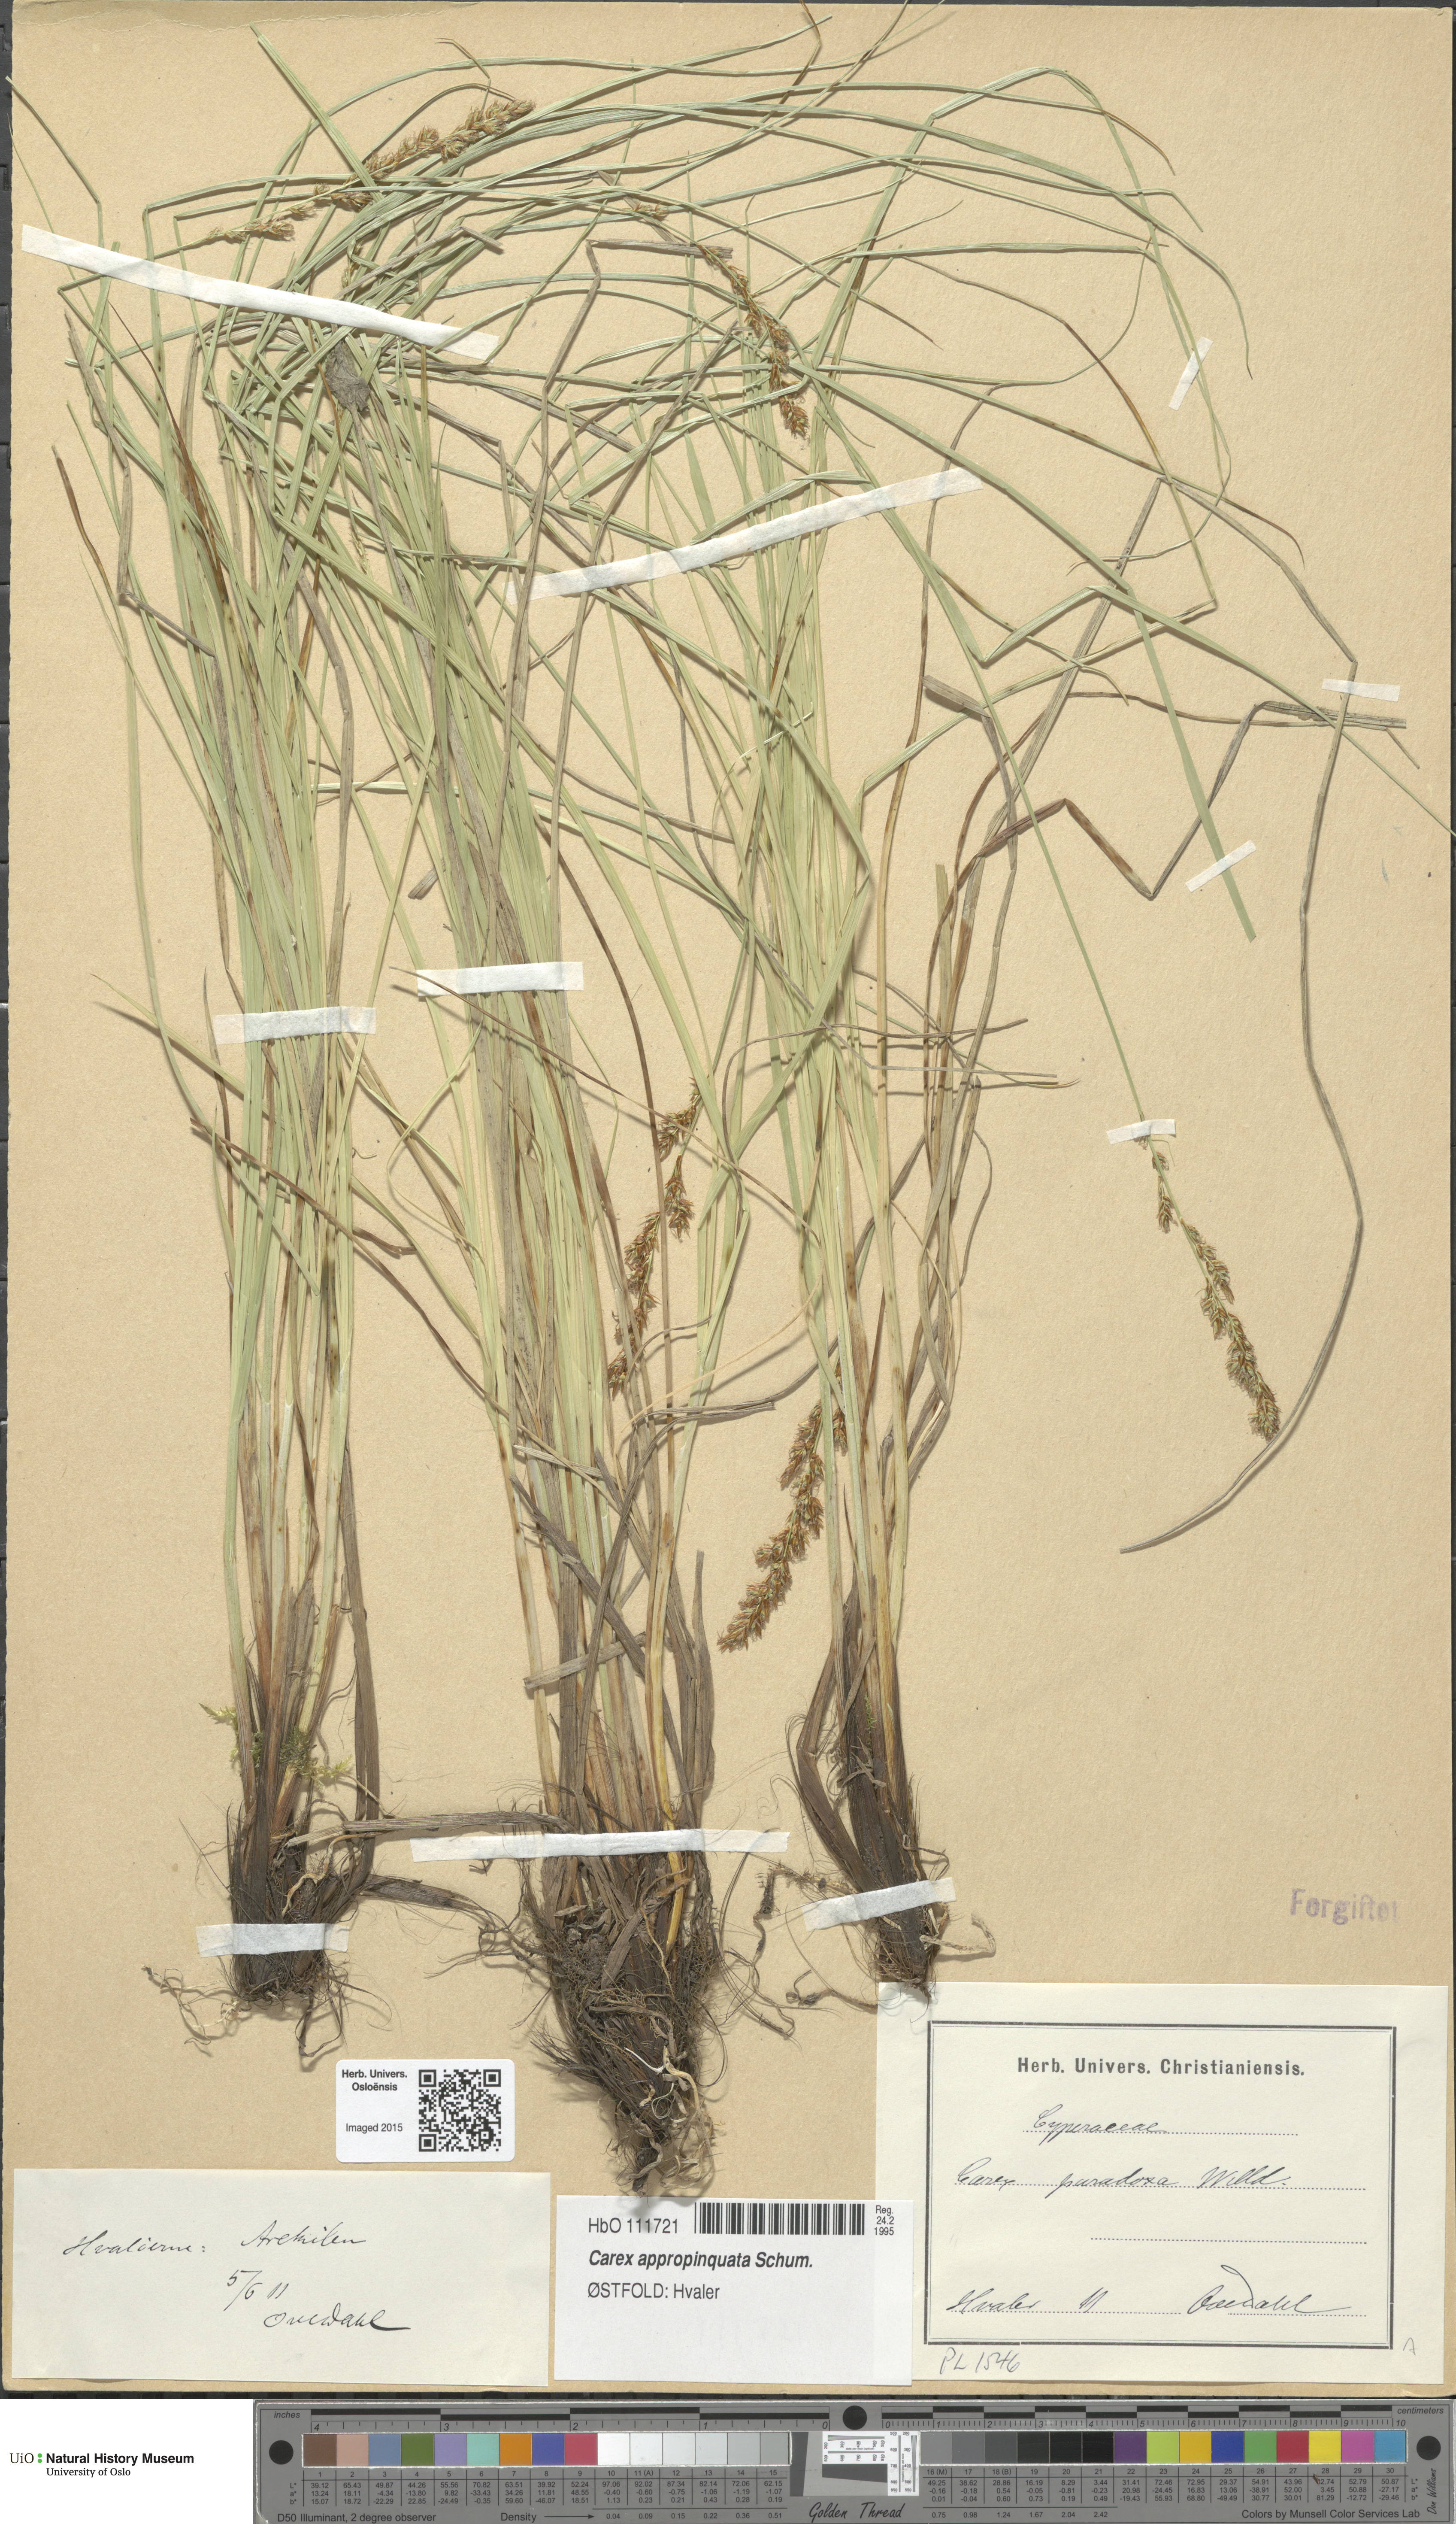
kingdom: Plantae
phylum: Tracheophyta
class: Liliopsida
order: Poales
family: Cyperaceae
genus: Carex
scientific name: Carex appropinquata
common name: Fibrous tussock-sedge
